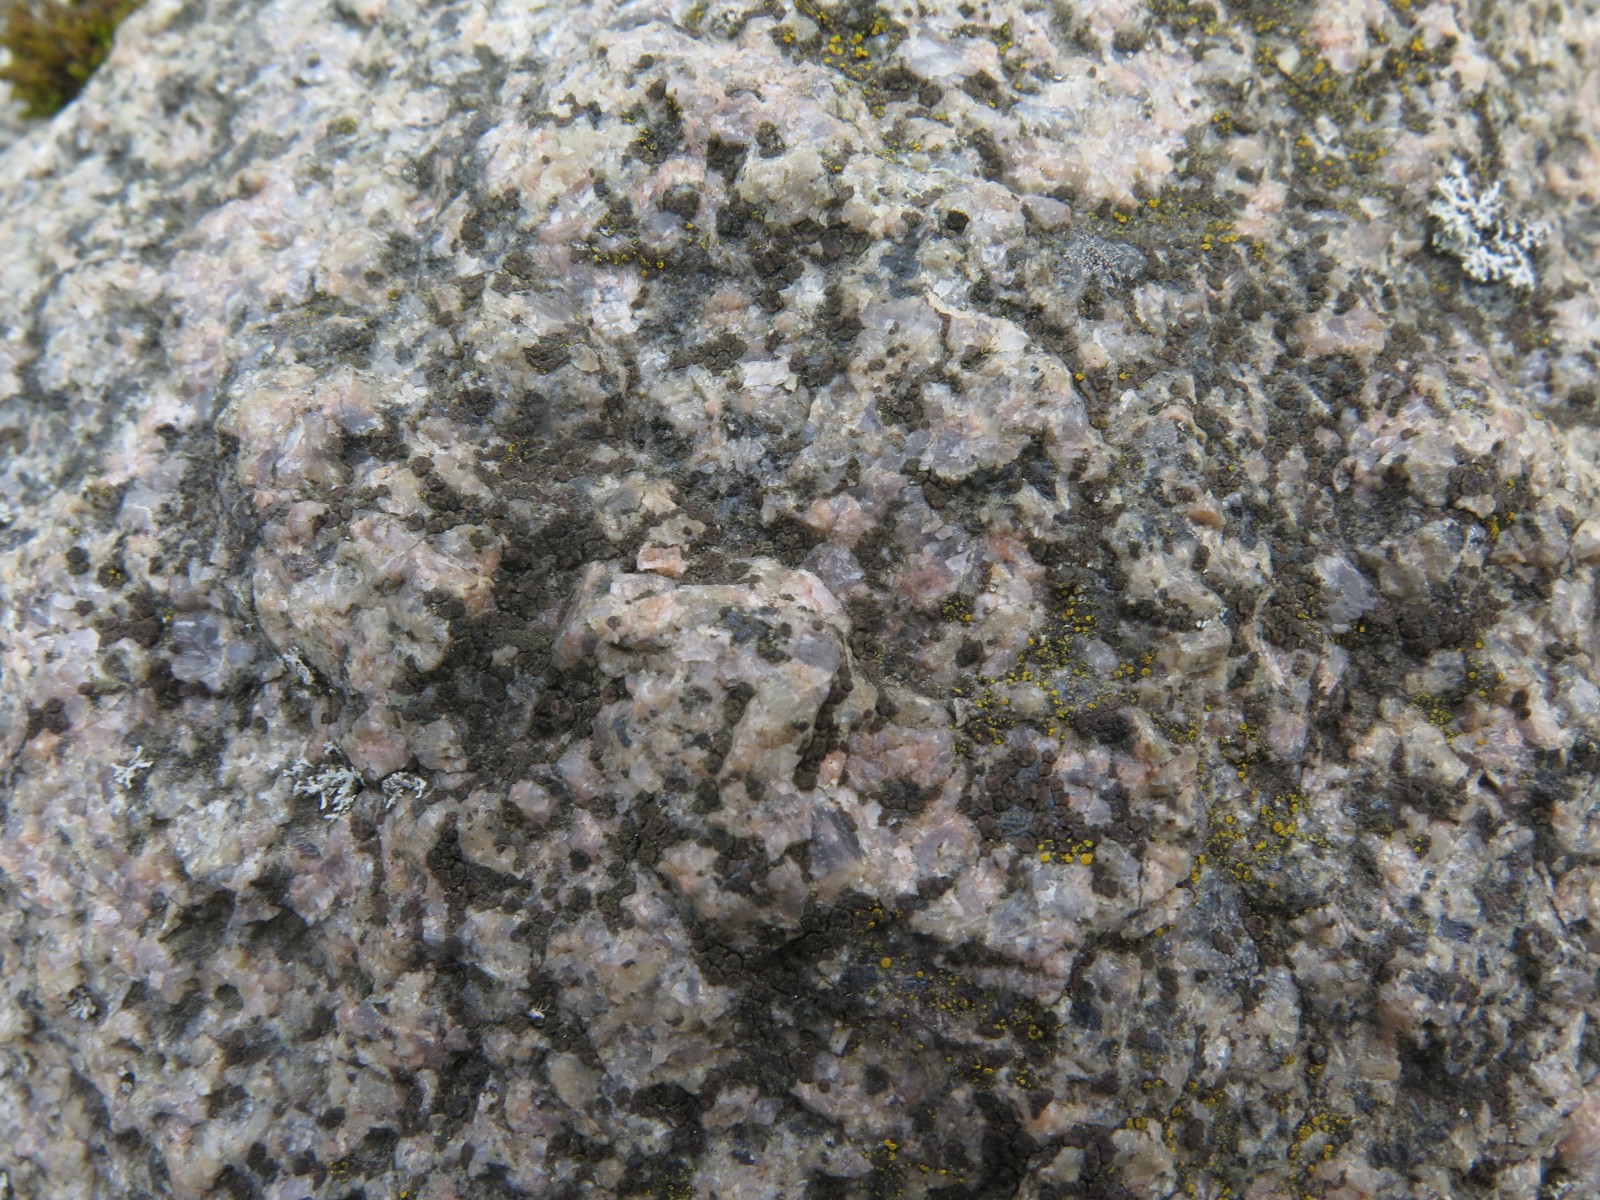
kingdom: Fungi
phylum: Ascomycota
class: Lecanoromycetes
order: Acarosporales
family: Acarosporaceae
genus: Acarospora
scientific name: Acarospora privigna
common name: sort foldekantlav
